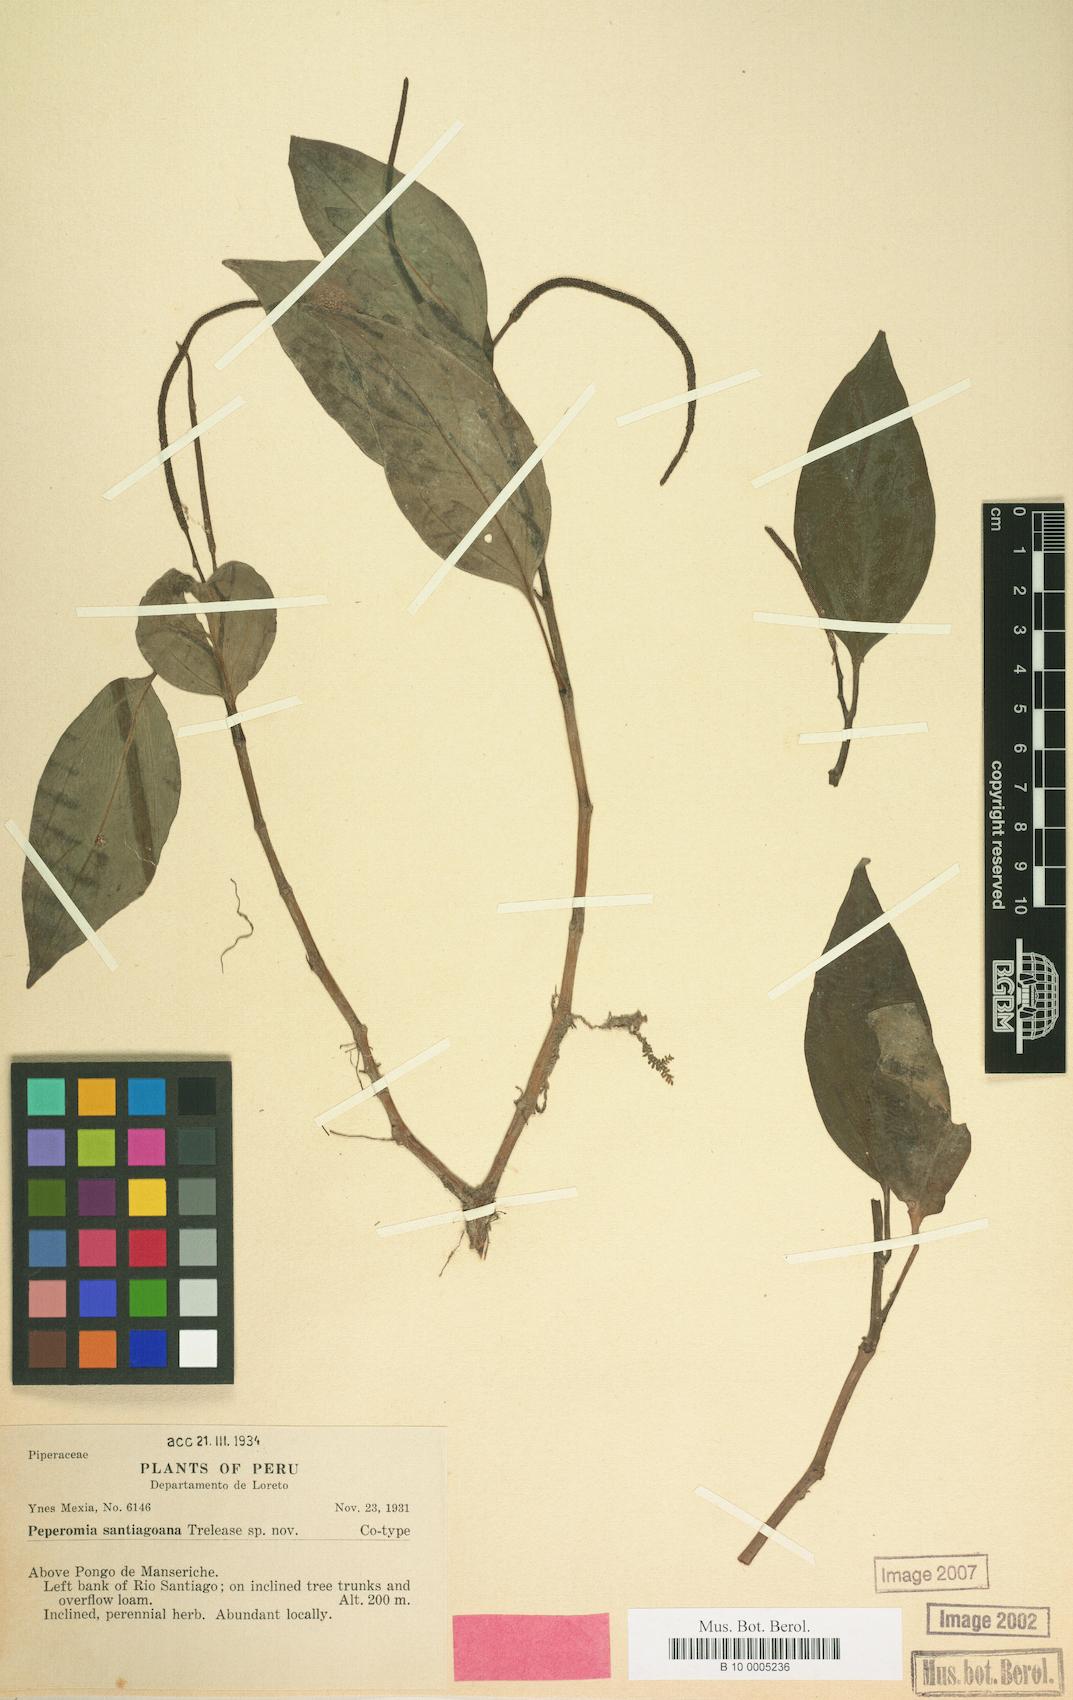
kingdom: Plantae
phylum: Tracheophyta
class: Magnoliopsida
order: Piperales
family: Piperaceae
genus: Peperomia
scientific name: Peperomia santiagoana
